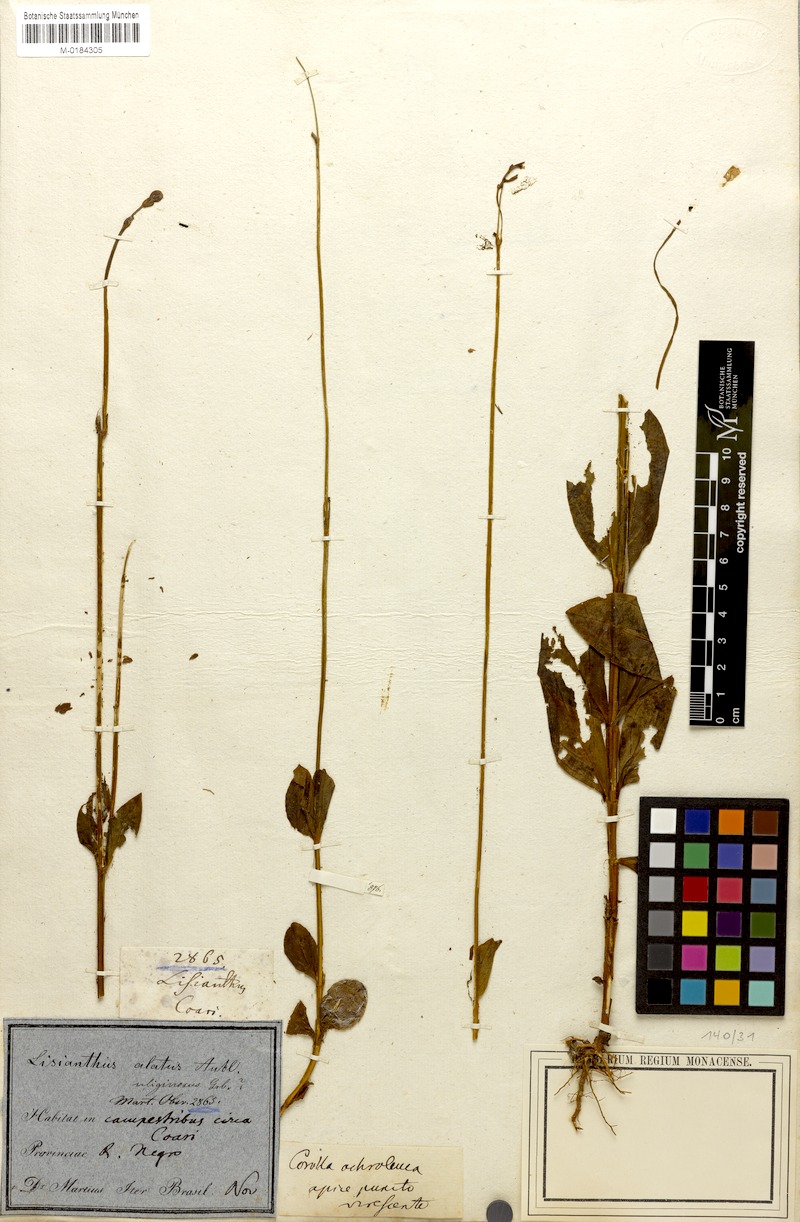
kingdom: Plantae
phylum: Tracheophyta
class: Magnoliopsida
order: Gentianales
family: Gentianaceae
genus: Chelonanthus
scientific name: Chelonanthus alatus
